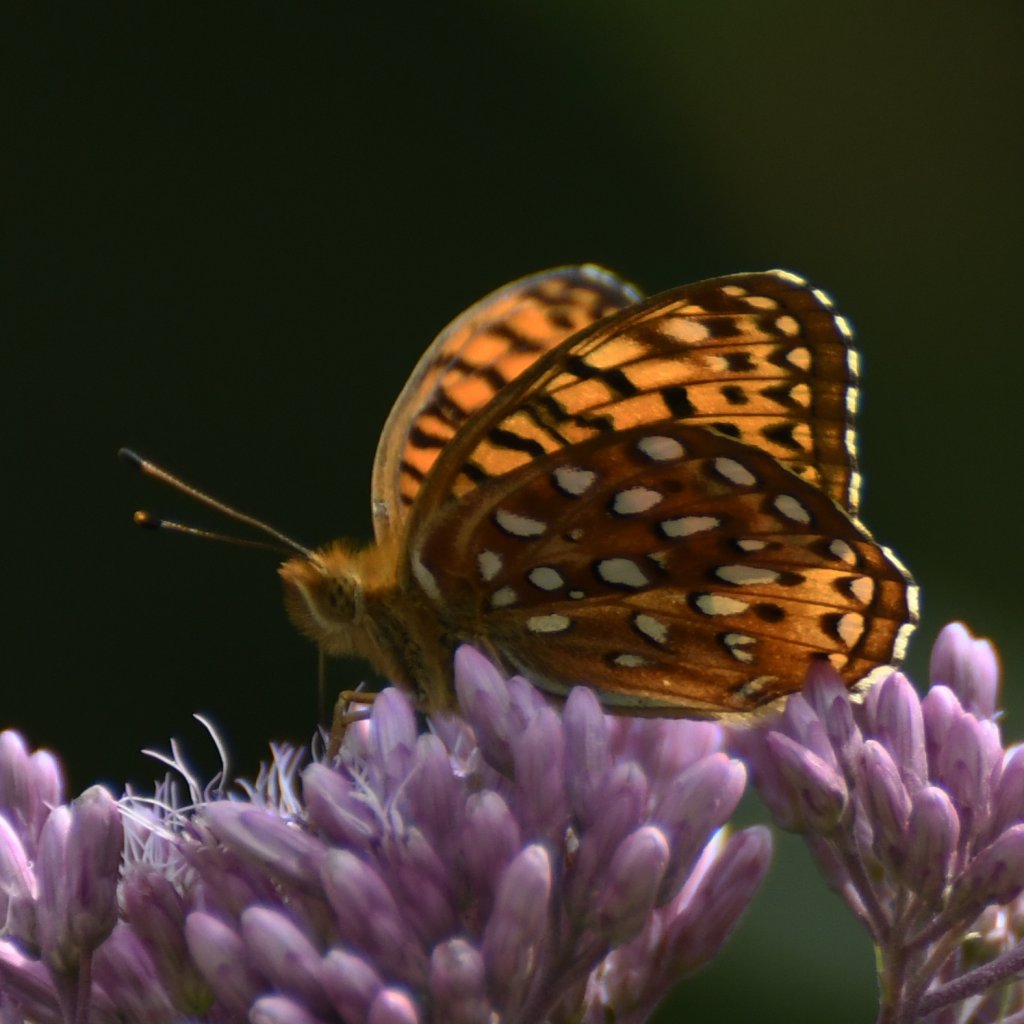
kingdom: Animalia
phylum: Arthropoda
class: Insecta
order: Lepidoptera
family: Nymphalidae
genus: Speyeria
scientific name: Speyeria aphrodite
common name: Aphrodite Fritillary
